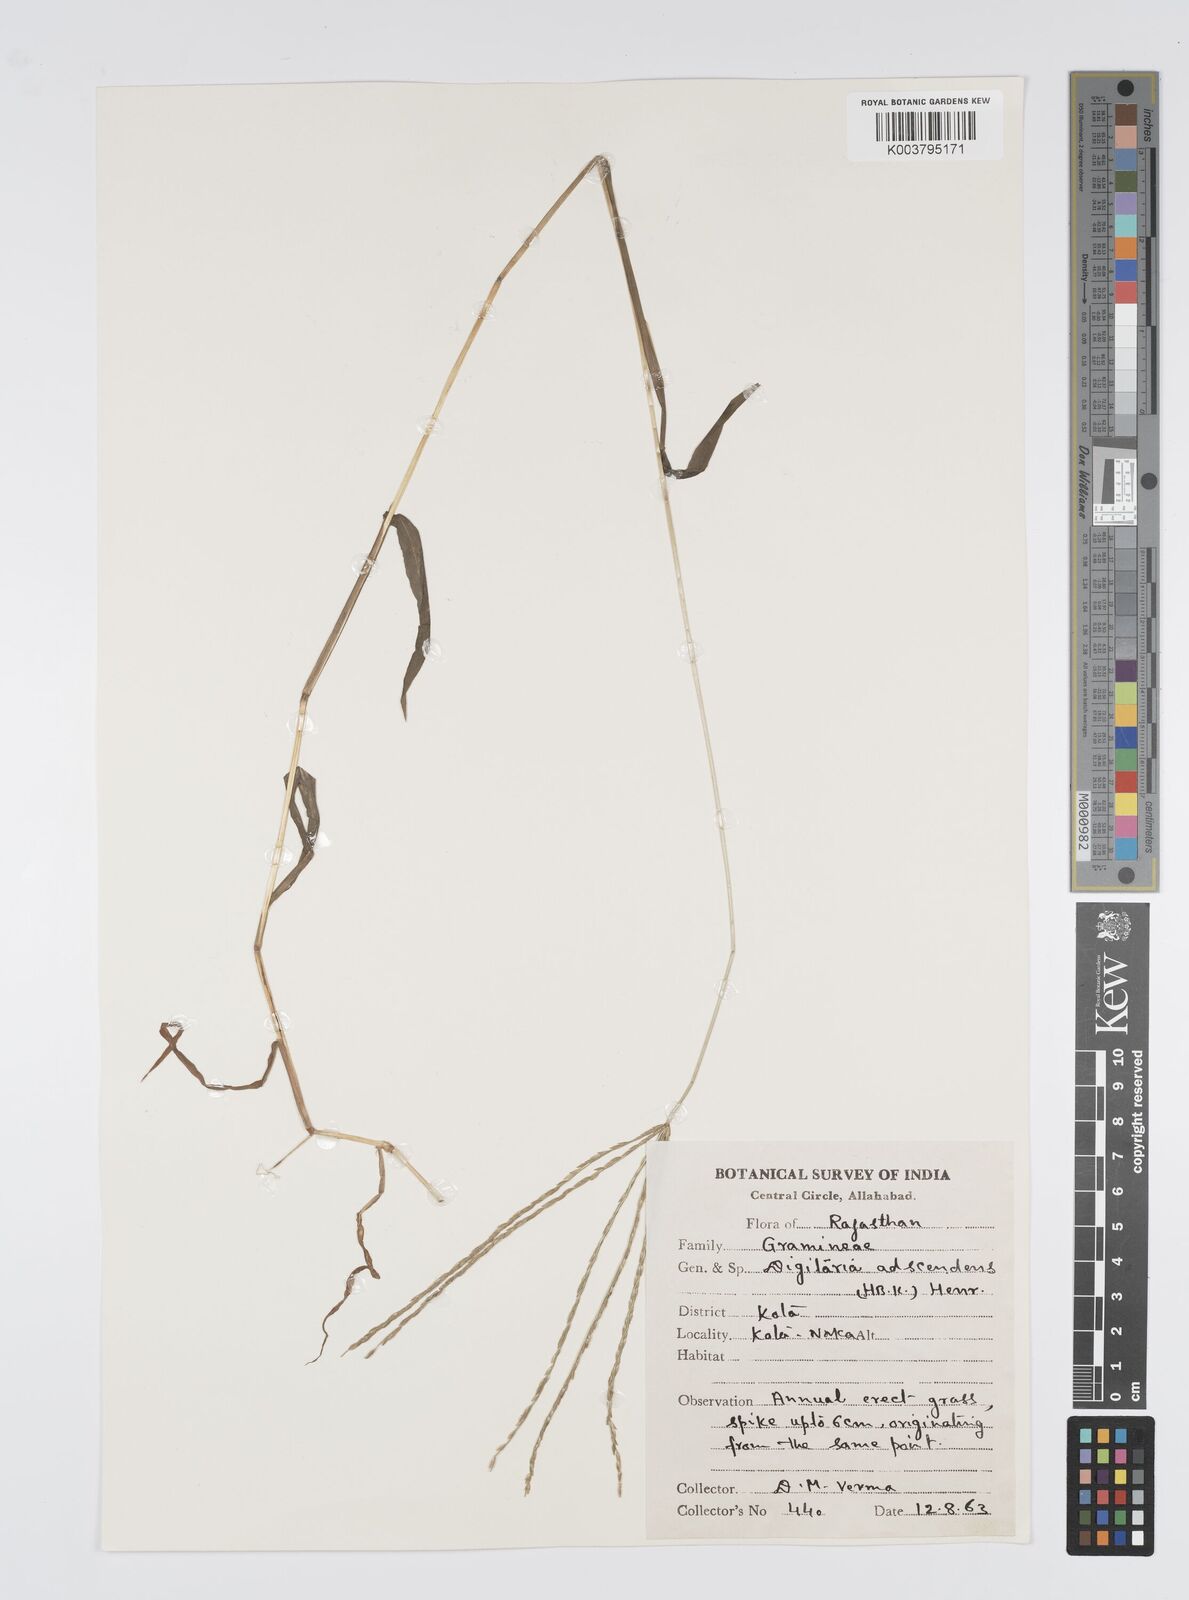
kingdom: Plantae
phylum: Tracheophyta
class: Liliopsida
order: Poales
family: Poaceae
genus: Digitaria
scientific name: Digitaria ciliaris
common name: Tropical finger-grass
